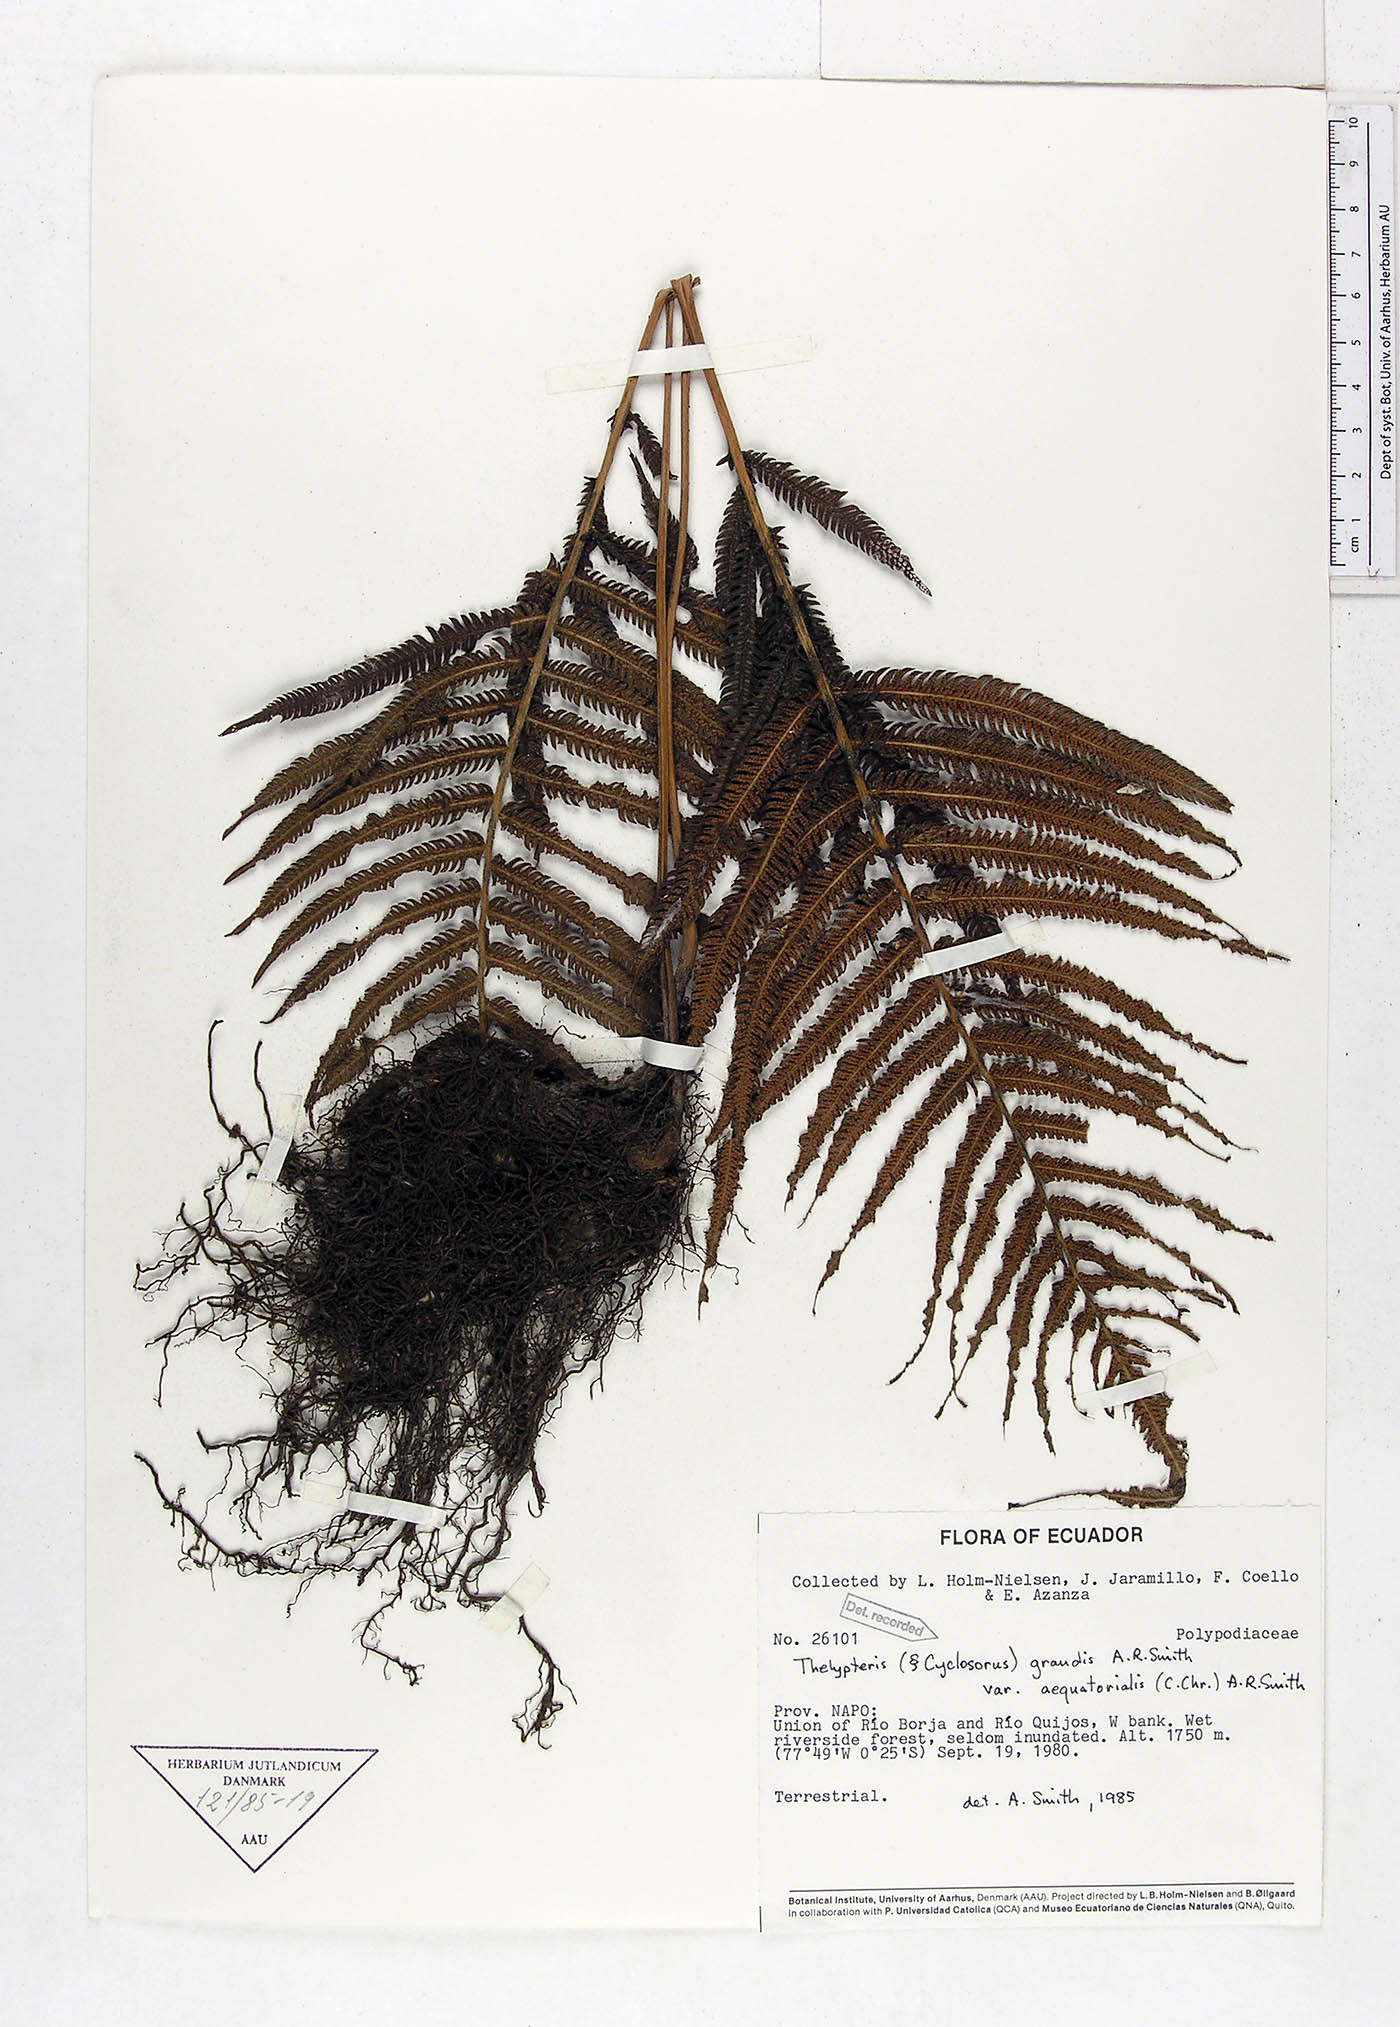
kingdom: Plantae
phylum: Tracheophyta
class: Polypodiopsida
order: Polypodiales
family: Thelypteridaceae
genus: Pelazoneuron
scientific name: Pelazoneuron abruptum
